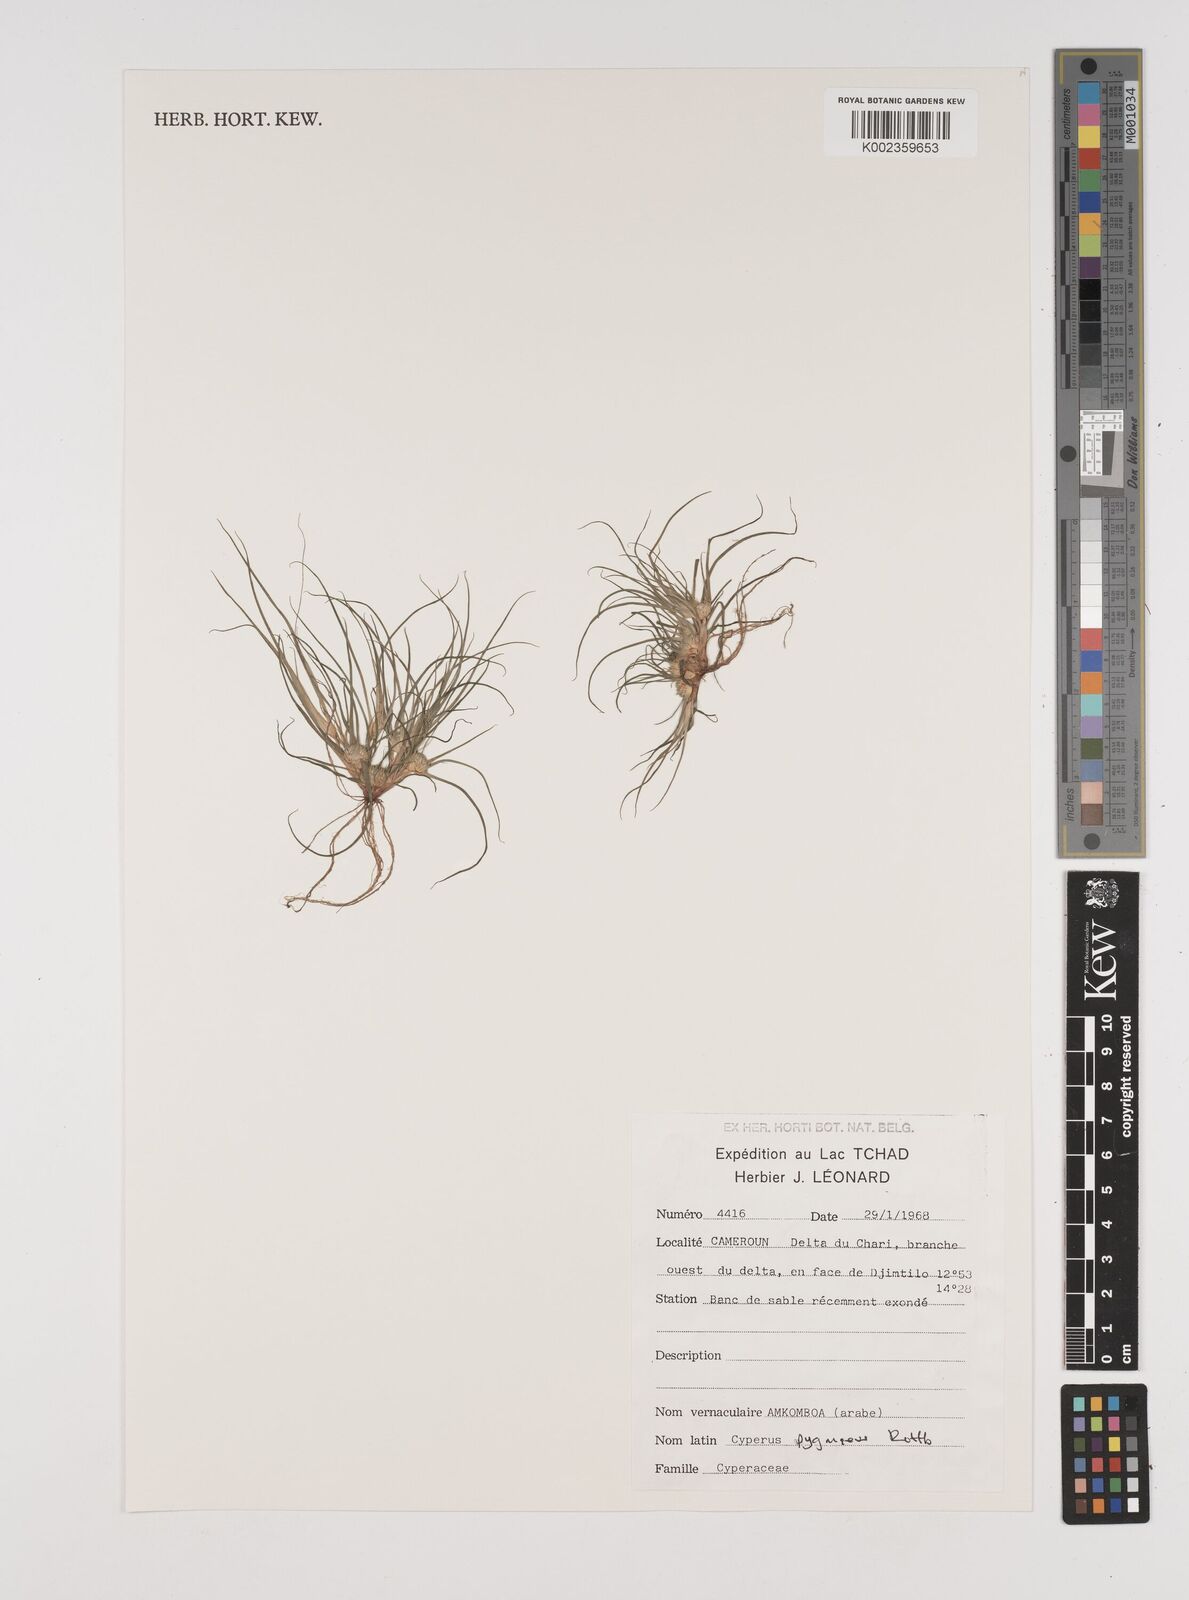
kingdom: Plantae
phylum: Tracheophyta
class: Liliopsida
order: Poales
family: Cyperaceae
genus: Cyperus
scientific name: Cyperus
